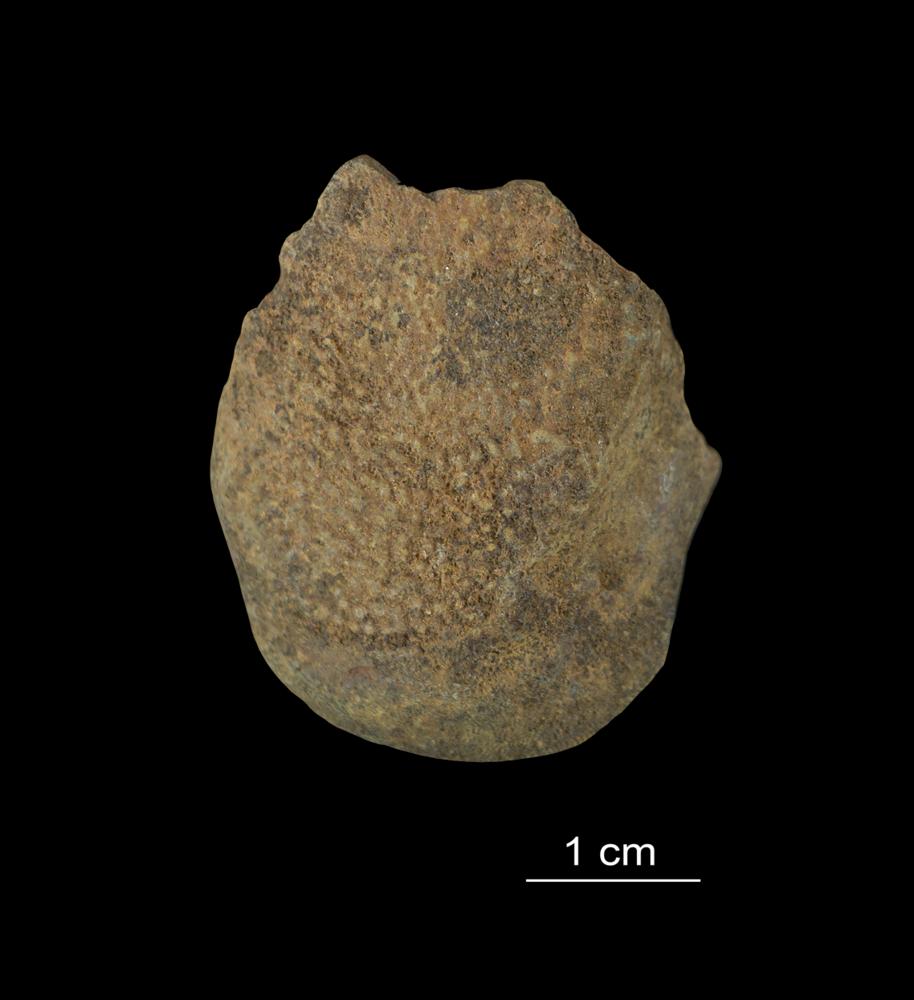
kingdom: Animalia
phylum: Chordata
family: Asterolepididae
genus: Asterolepis
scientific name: Asterolepis ornata
